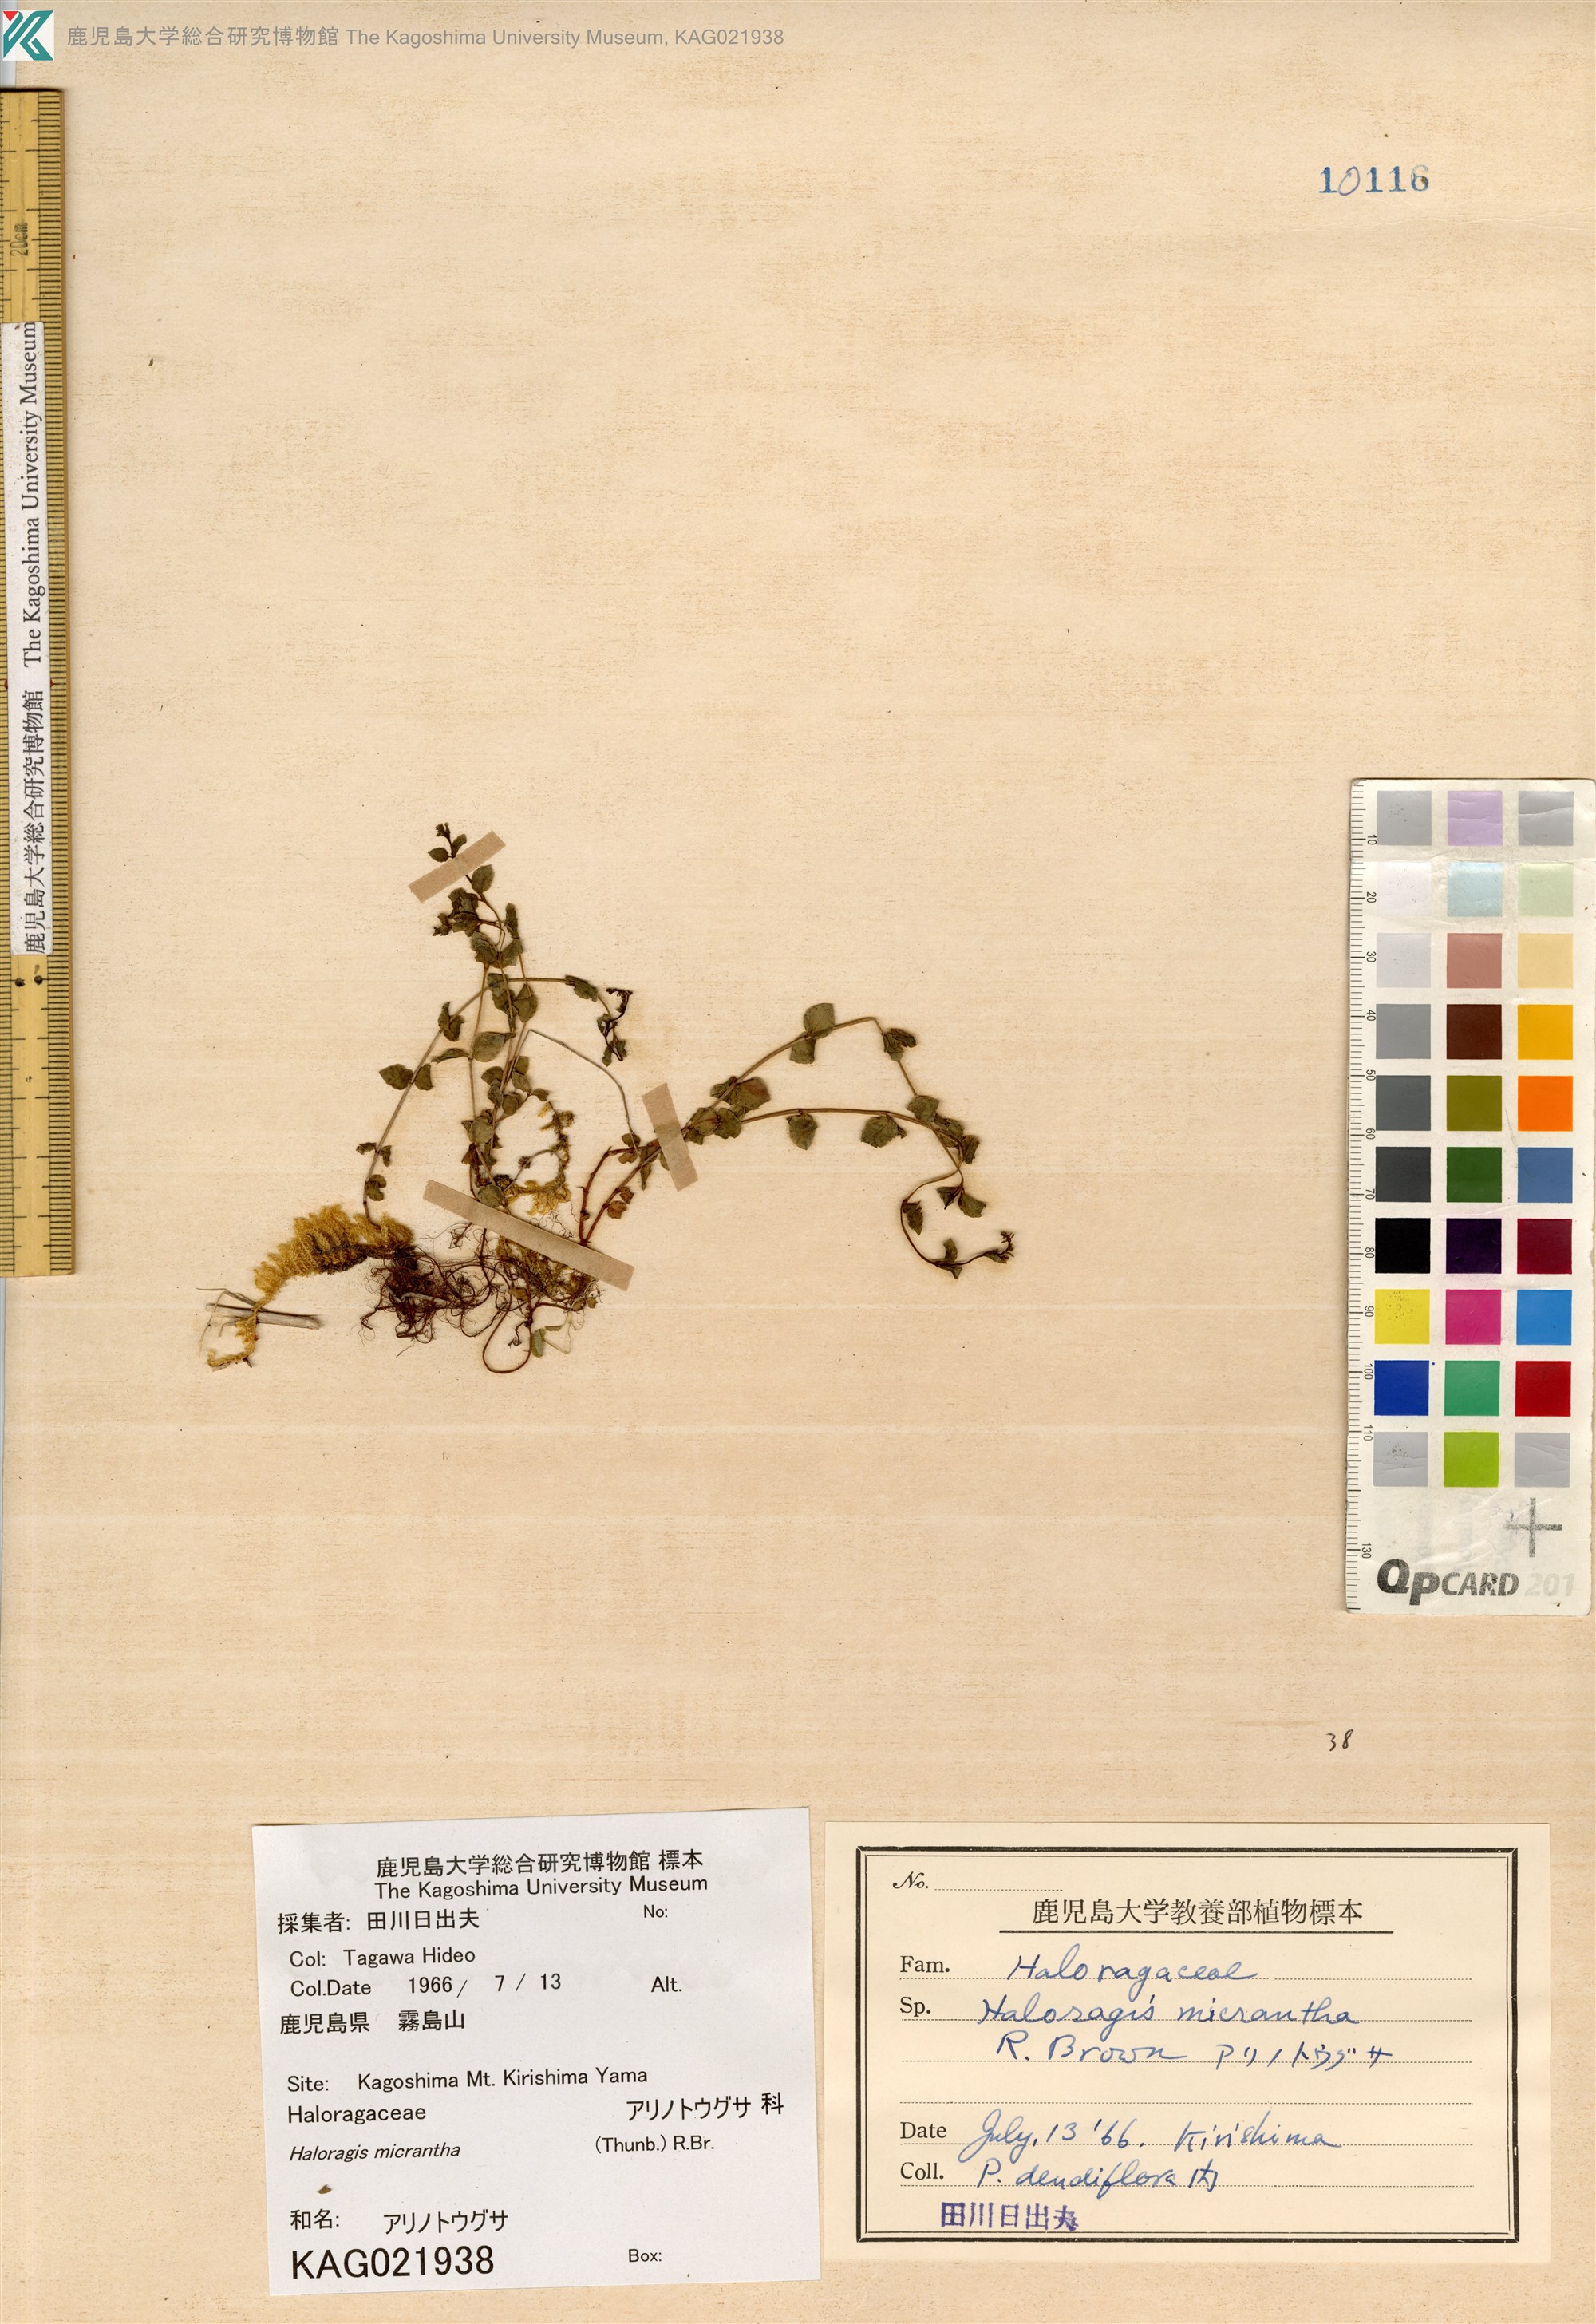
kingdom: Plantae
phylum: Tracheophyta
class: Magnoliopsida
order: Saxifragales
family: Haloragaceae
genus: Gonocarpus
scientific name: Gonocarpus micranthus
